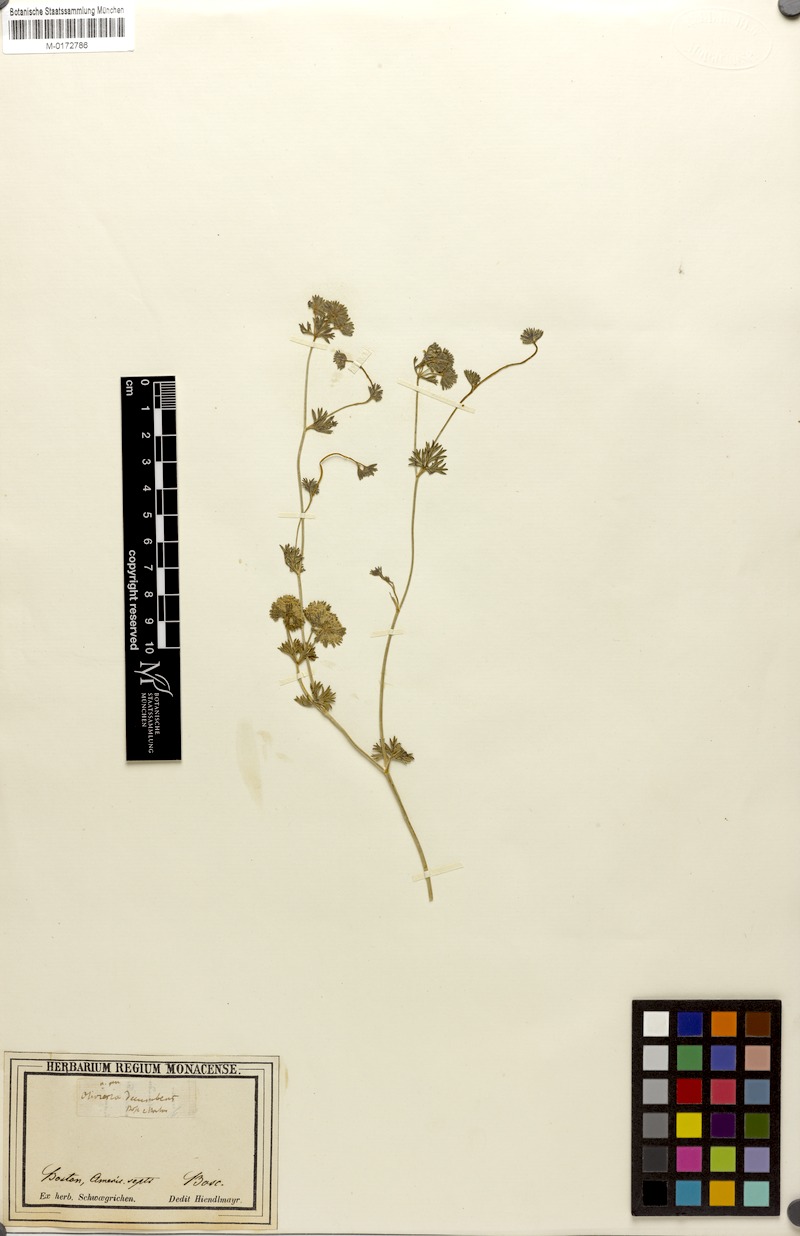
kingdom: Plantae
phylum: Tracheophyta
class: Magnoliopsida
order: Apiales
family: Apiaceae
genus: Oliveria
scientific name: Oliveria decumbens
